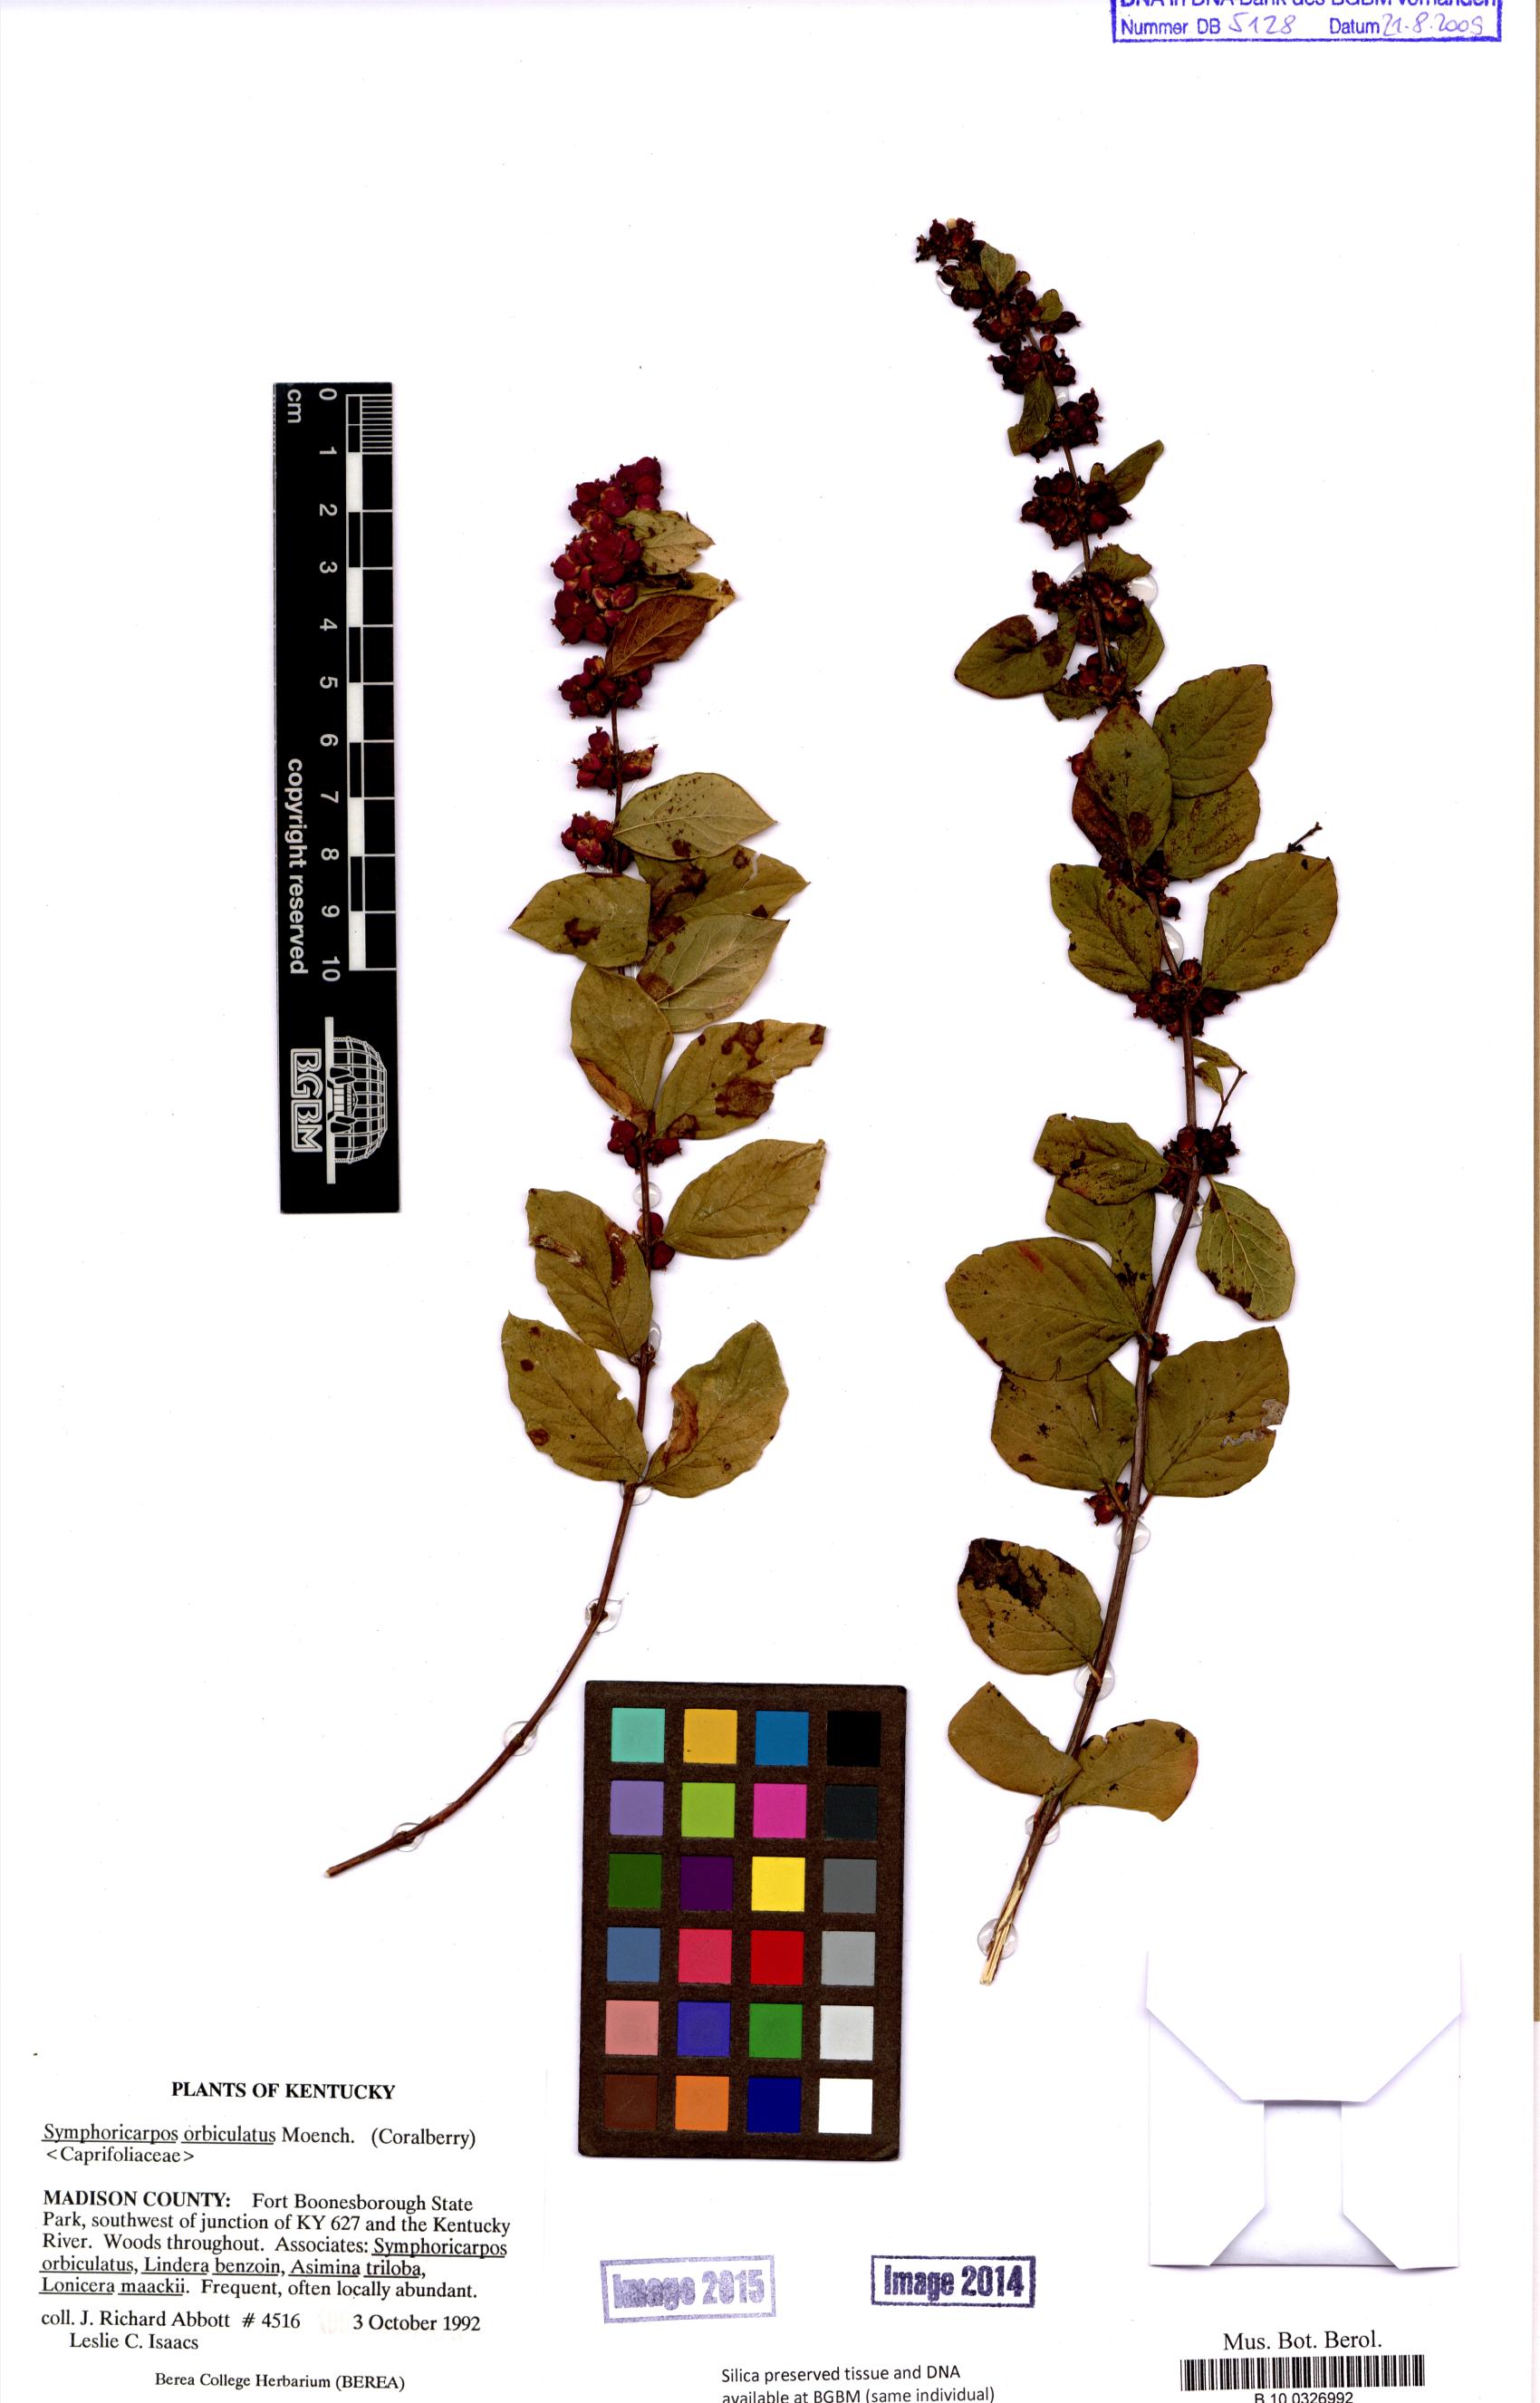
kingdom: Plantae
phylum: Tracheophyta
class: Magnoliopsida
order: Dipsacales
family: Caprifoliaceae
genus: Symphoricarpos
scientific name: Symphoricarpos orbiculatus
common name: Coralberry
